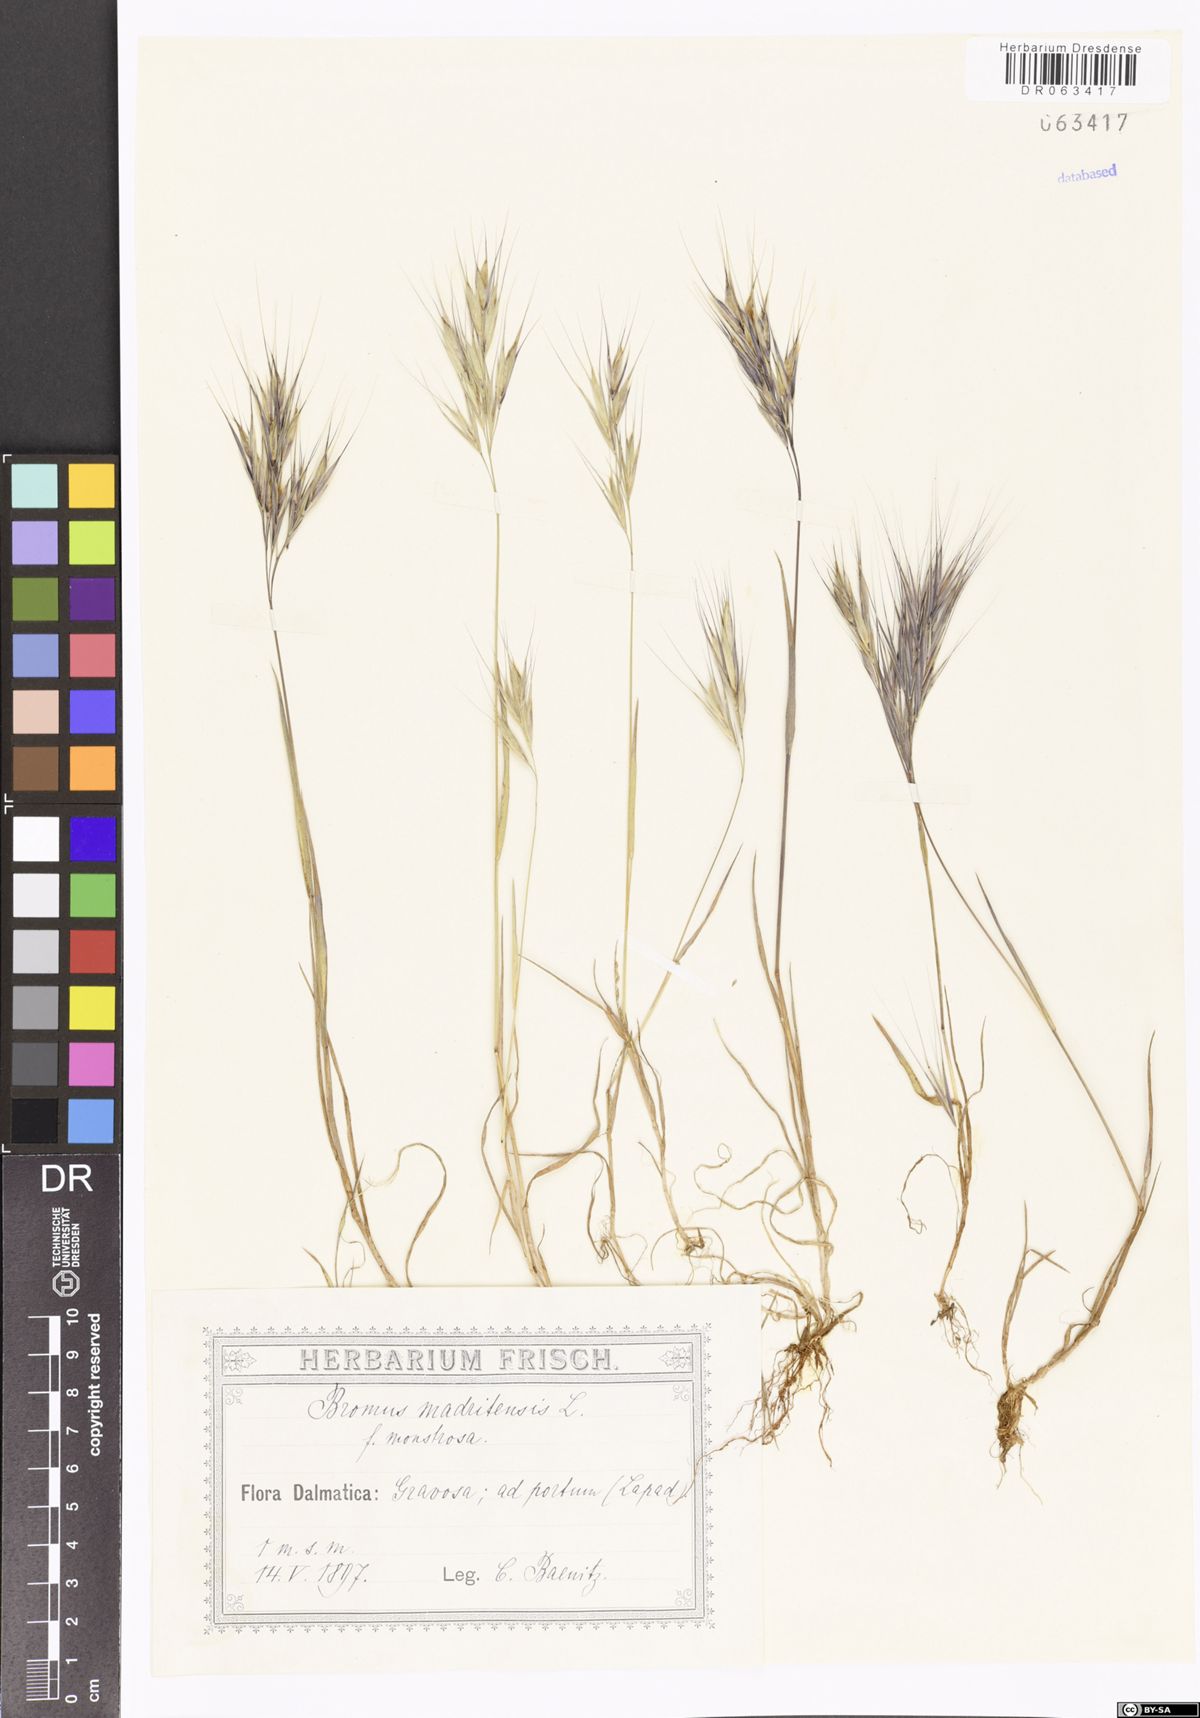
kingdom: Plantae
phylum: Tracheophyta
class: Liliopsida
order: Poales
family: Poaceae
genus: Bromus
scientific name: Bromus madritensis
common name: Compact brome
